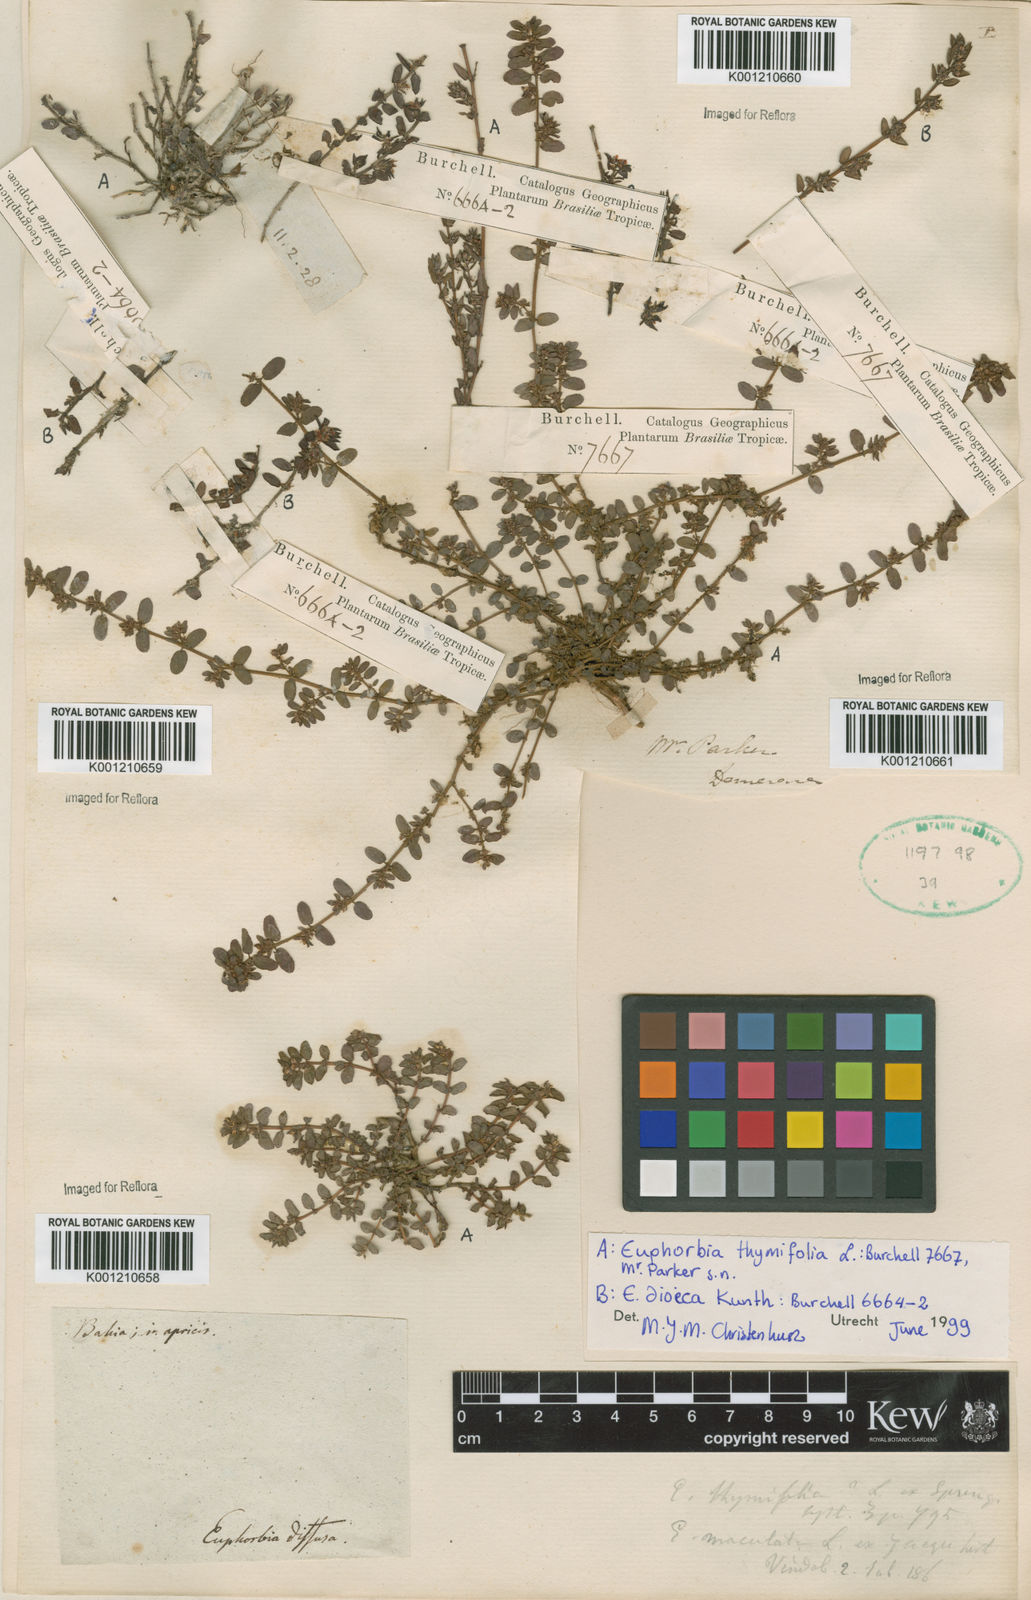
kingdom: Plantae
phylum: Tracheophyta
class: Magnoliopsida
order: Malpighiales
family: Euphorbiaceae
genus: Euphorbia
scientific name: Euphorbia
